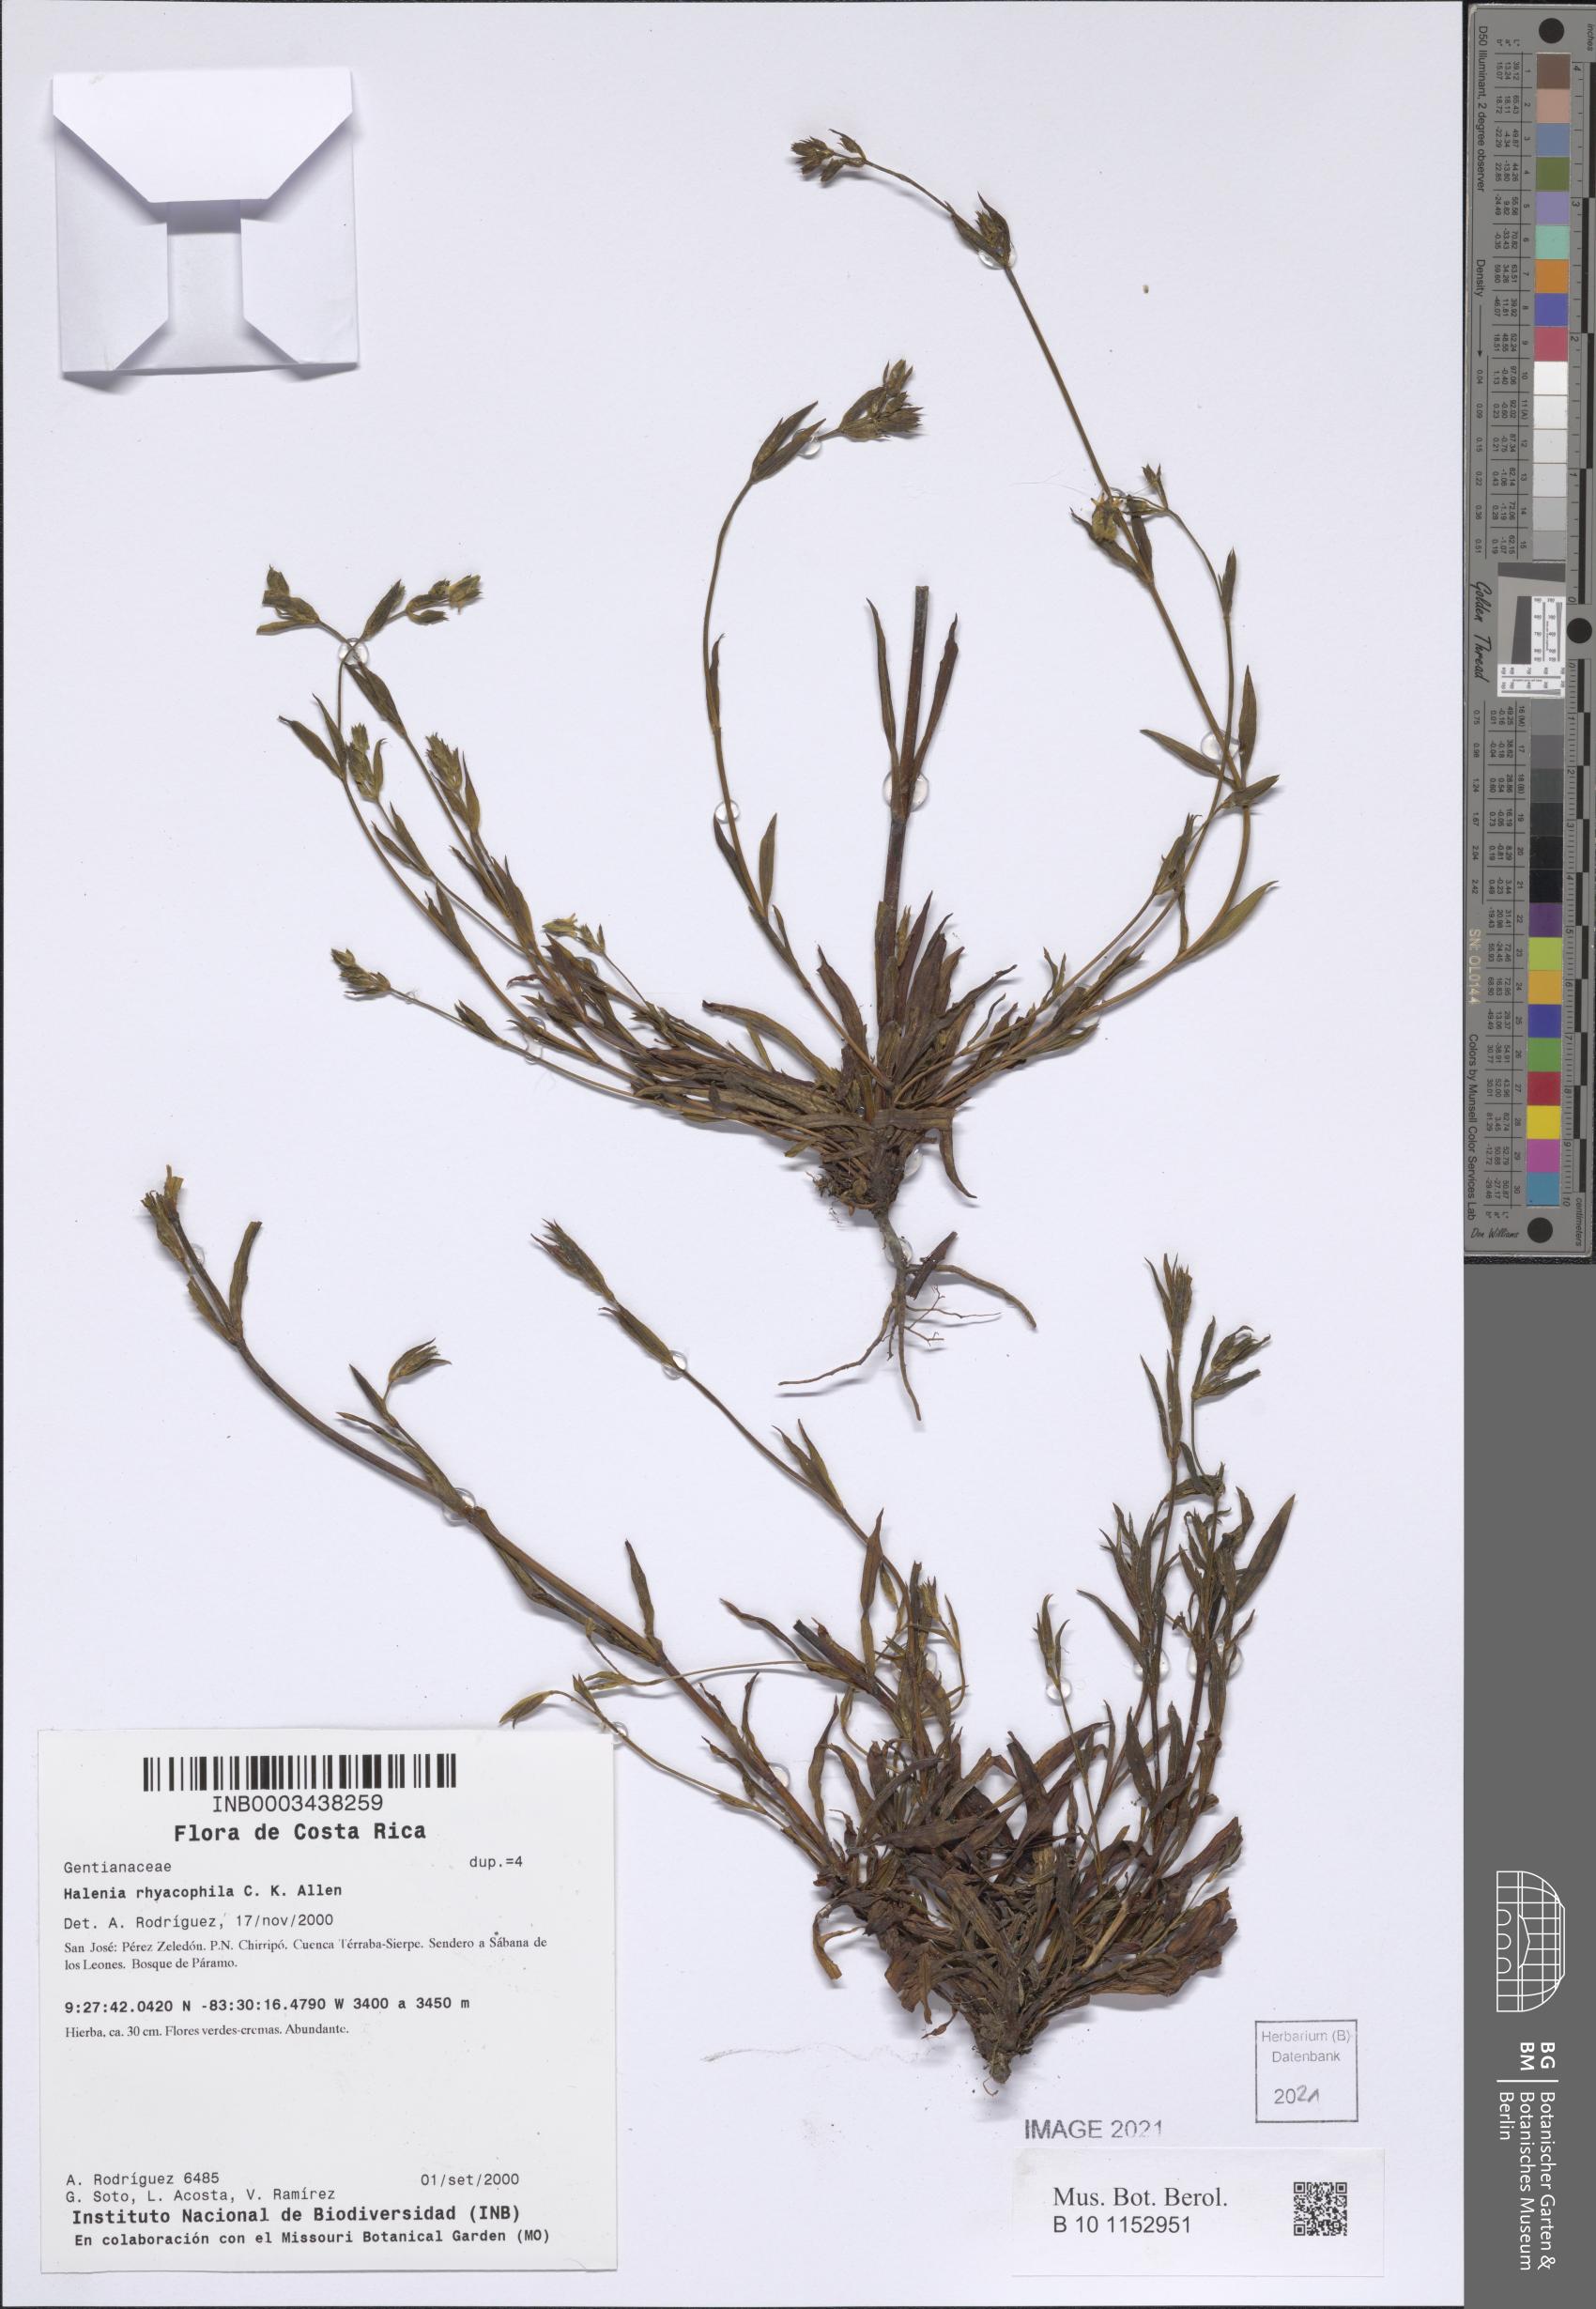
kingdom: Plantae
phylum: Tracheophyta
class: Magnoliopsida
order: Gentianales
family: Gentianaceae
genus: Halenia
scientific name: Halenia rhyacophila
